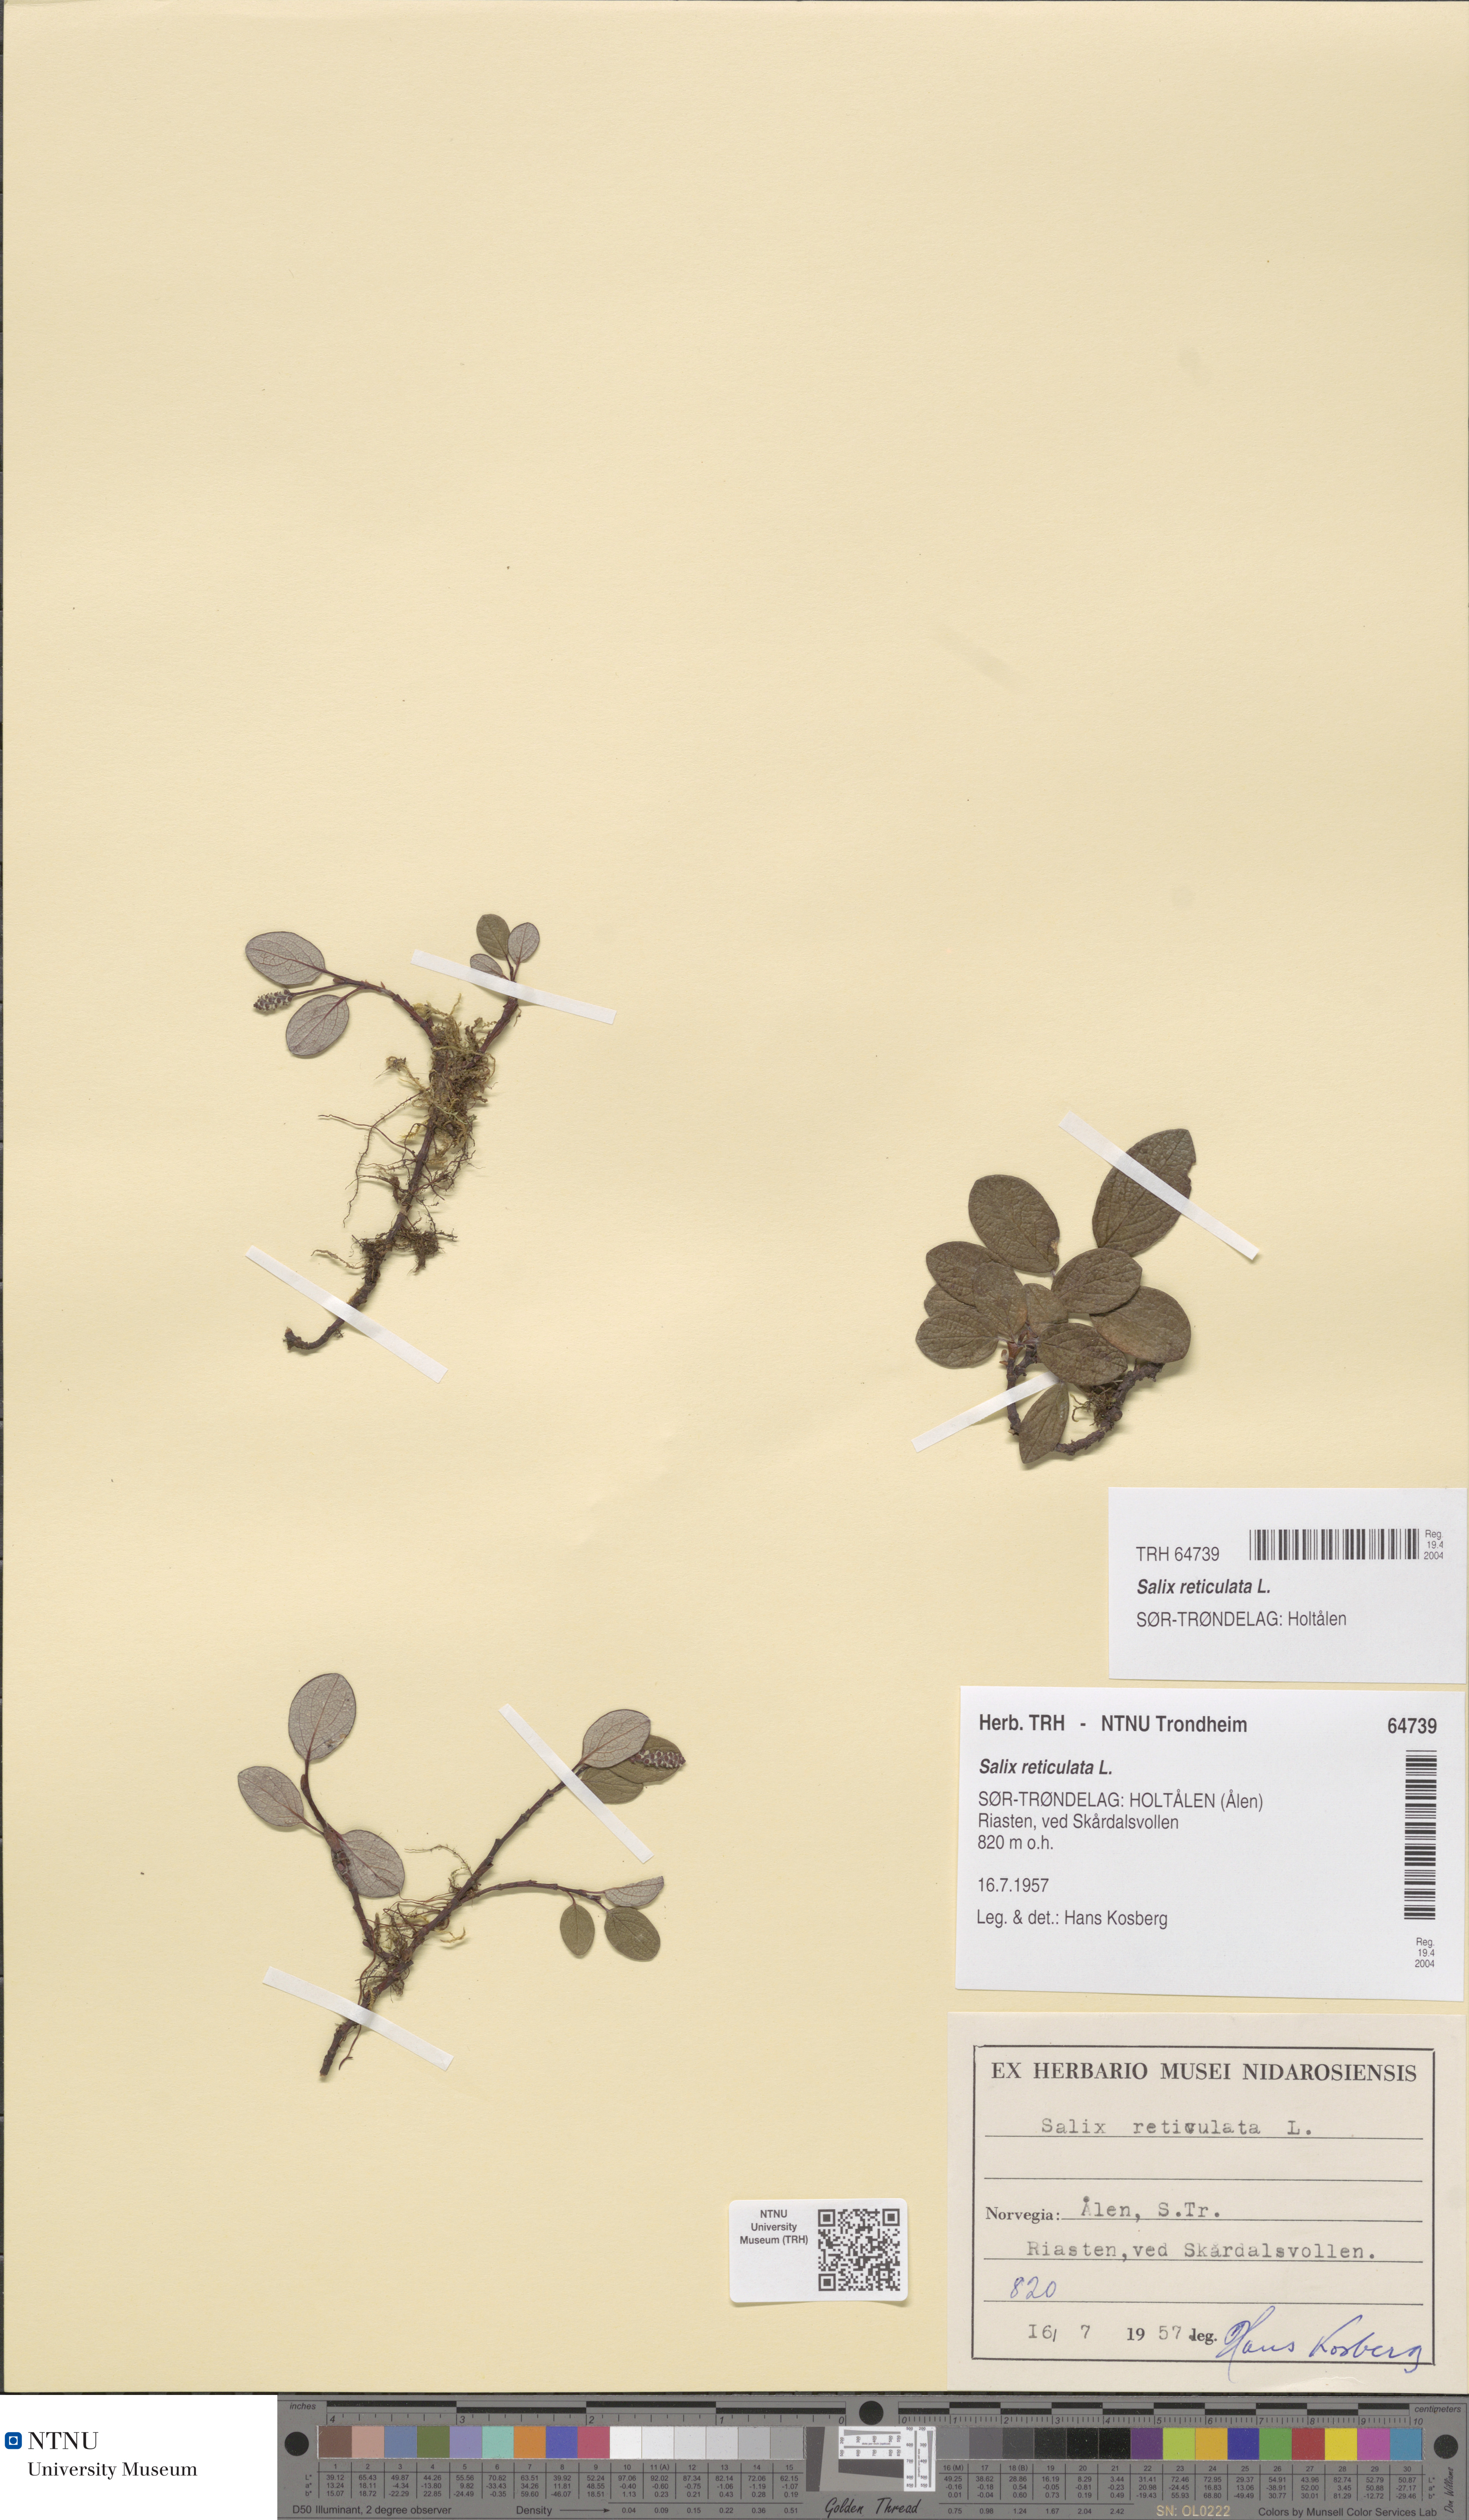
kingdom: Plantae
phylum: Tracheophyta
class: Magnoliopsida
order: Malpighiales
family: Salicaceae
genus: Salix
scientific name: Salix reticulata
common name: Net-leaved willow
